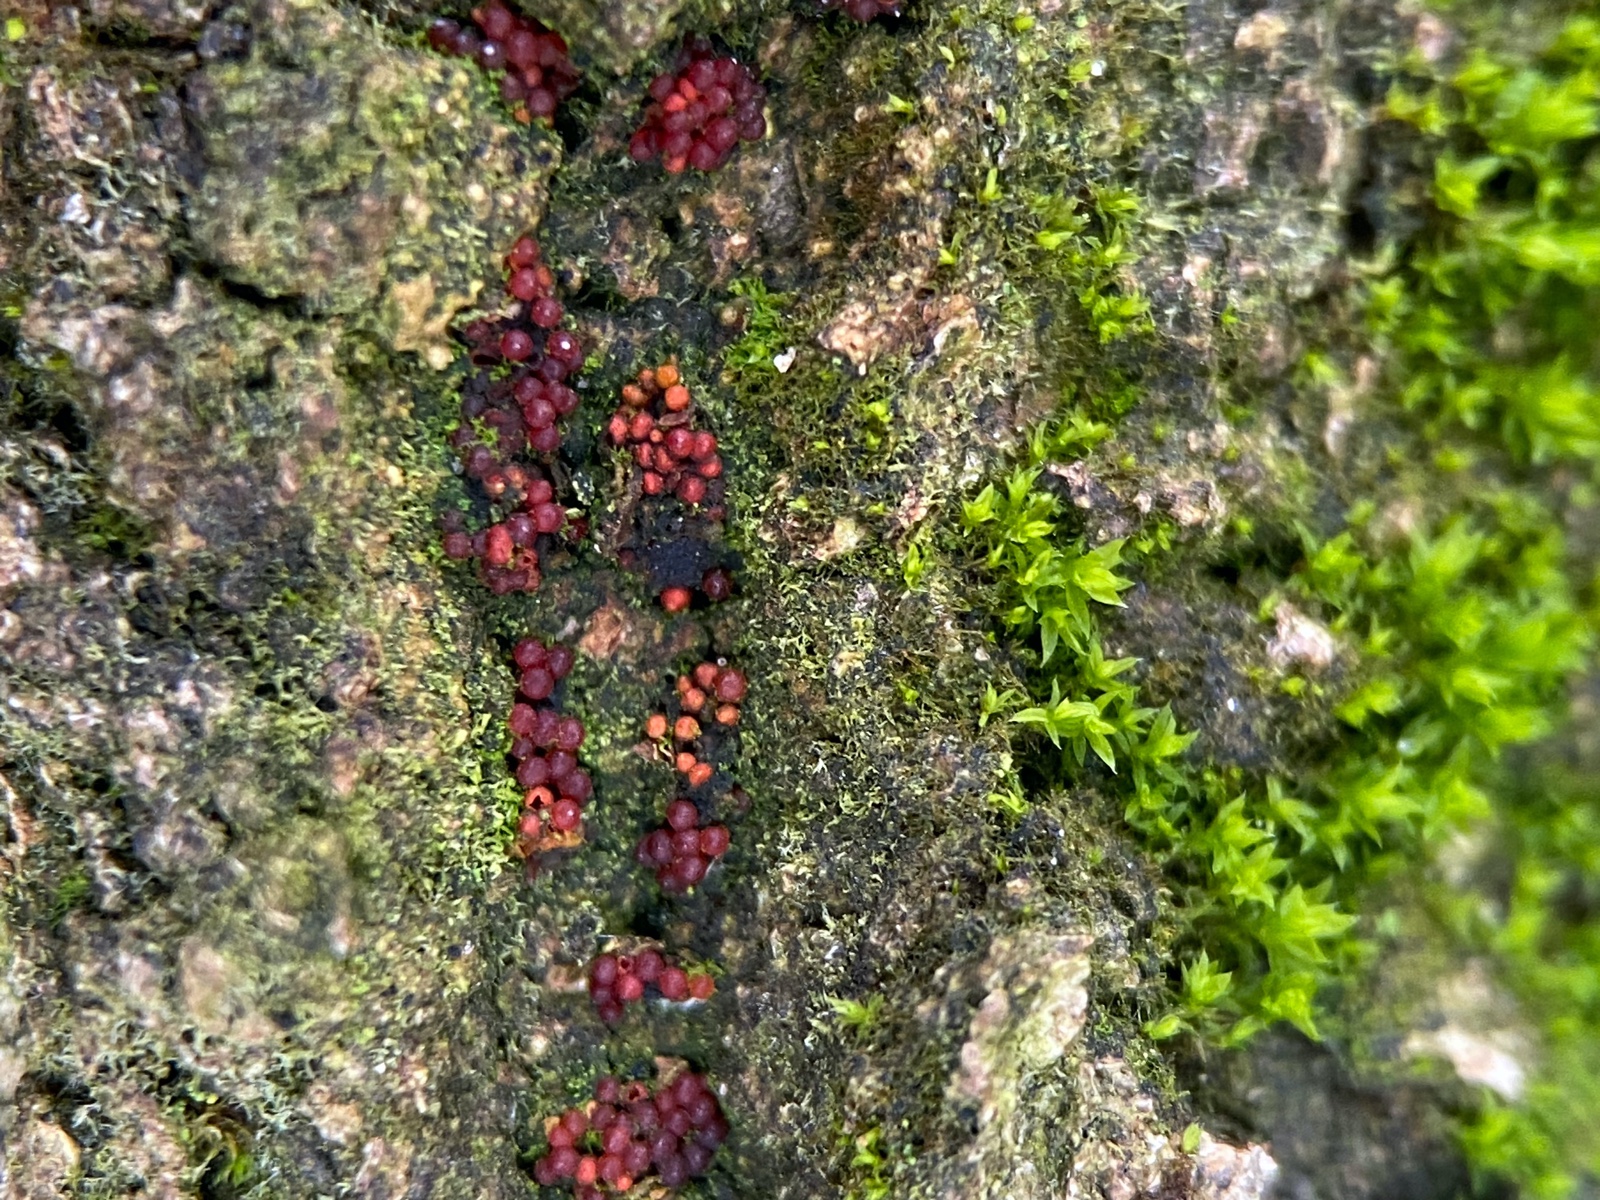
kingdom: Fungi
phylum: Ascomycota
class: Sordariomycetes
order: Hypocreales
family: Nectriaceae
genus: Neonectria
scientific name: Neonectria coccinea
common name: bøgebark-cinnobersvamp
